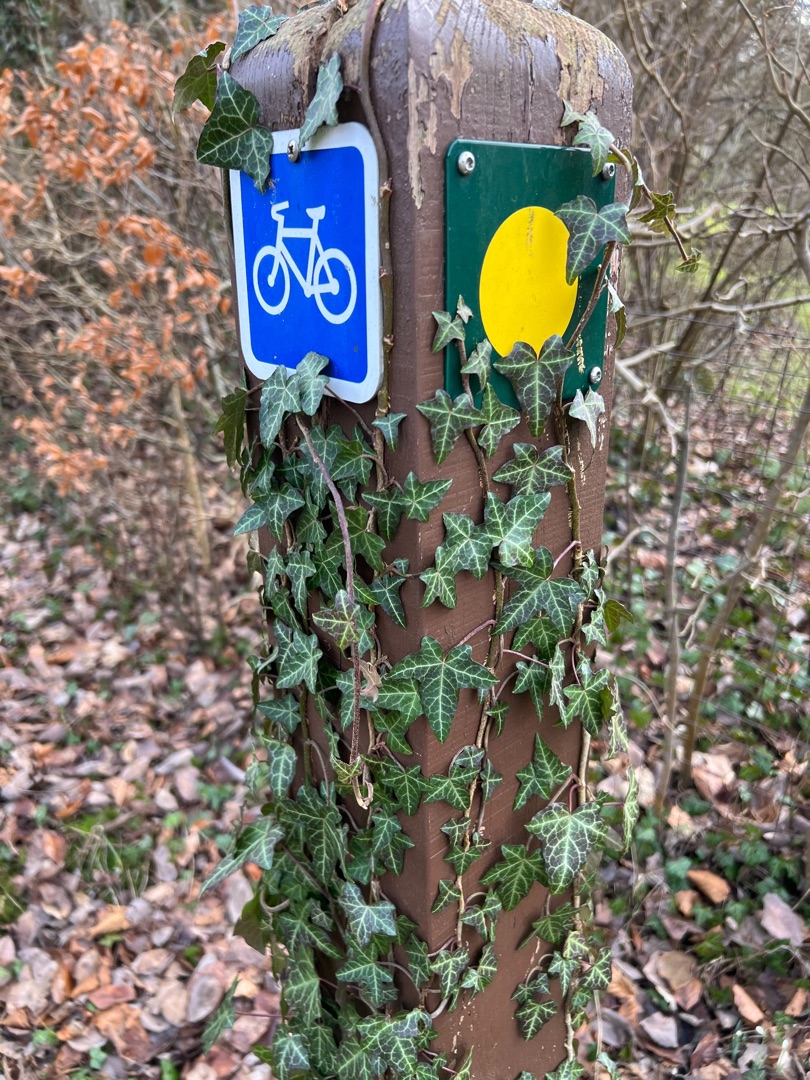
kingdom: Plantae
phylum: Tracheophyta
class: Magnoliopsida
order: Apiales
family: Araliaceae
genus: Hedera
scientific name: Hedera helix
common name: Vedbend
